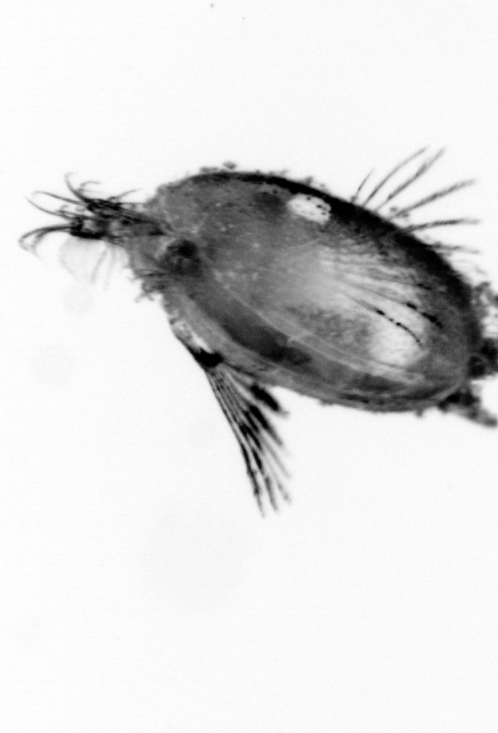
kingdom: Animalia
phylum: Annelida
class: Polychaeta
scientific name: Polychaeta
